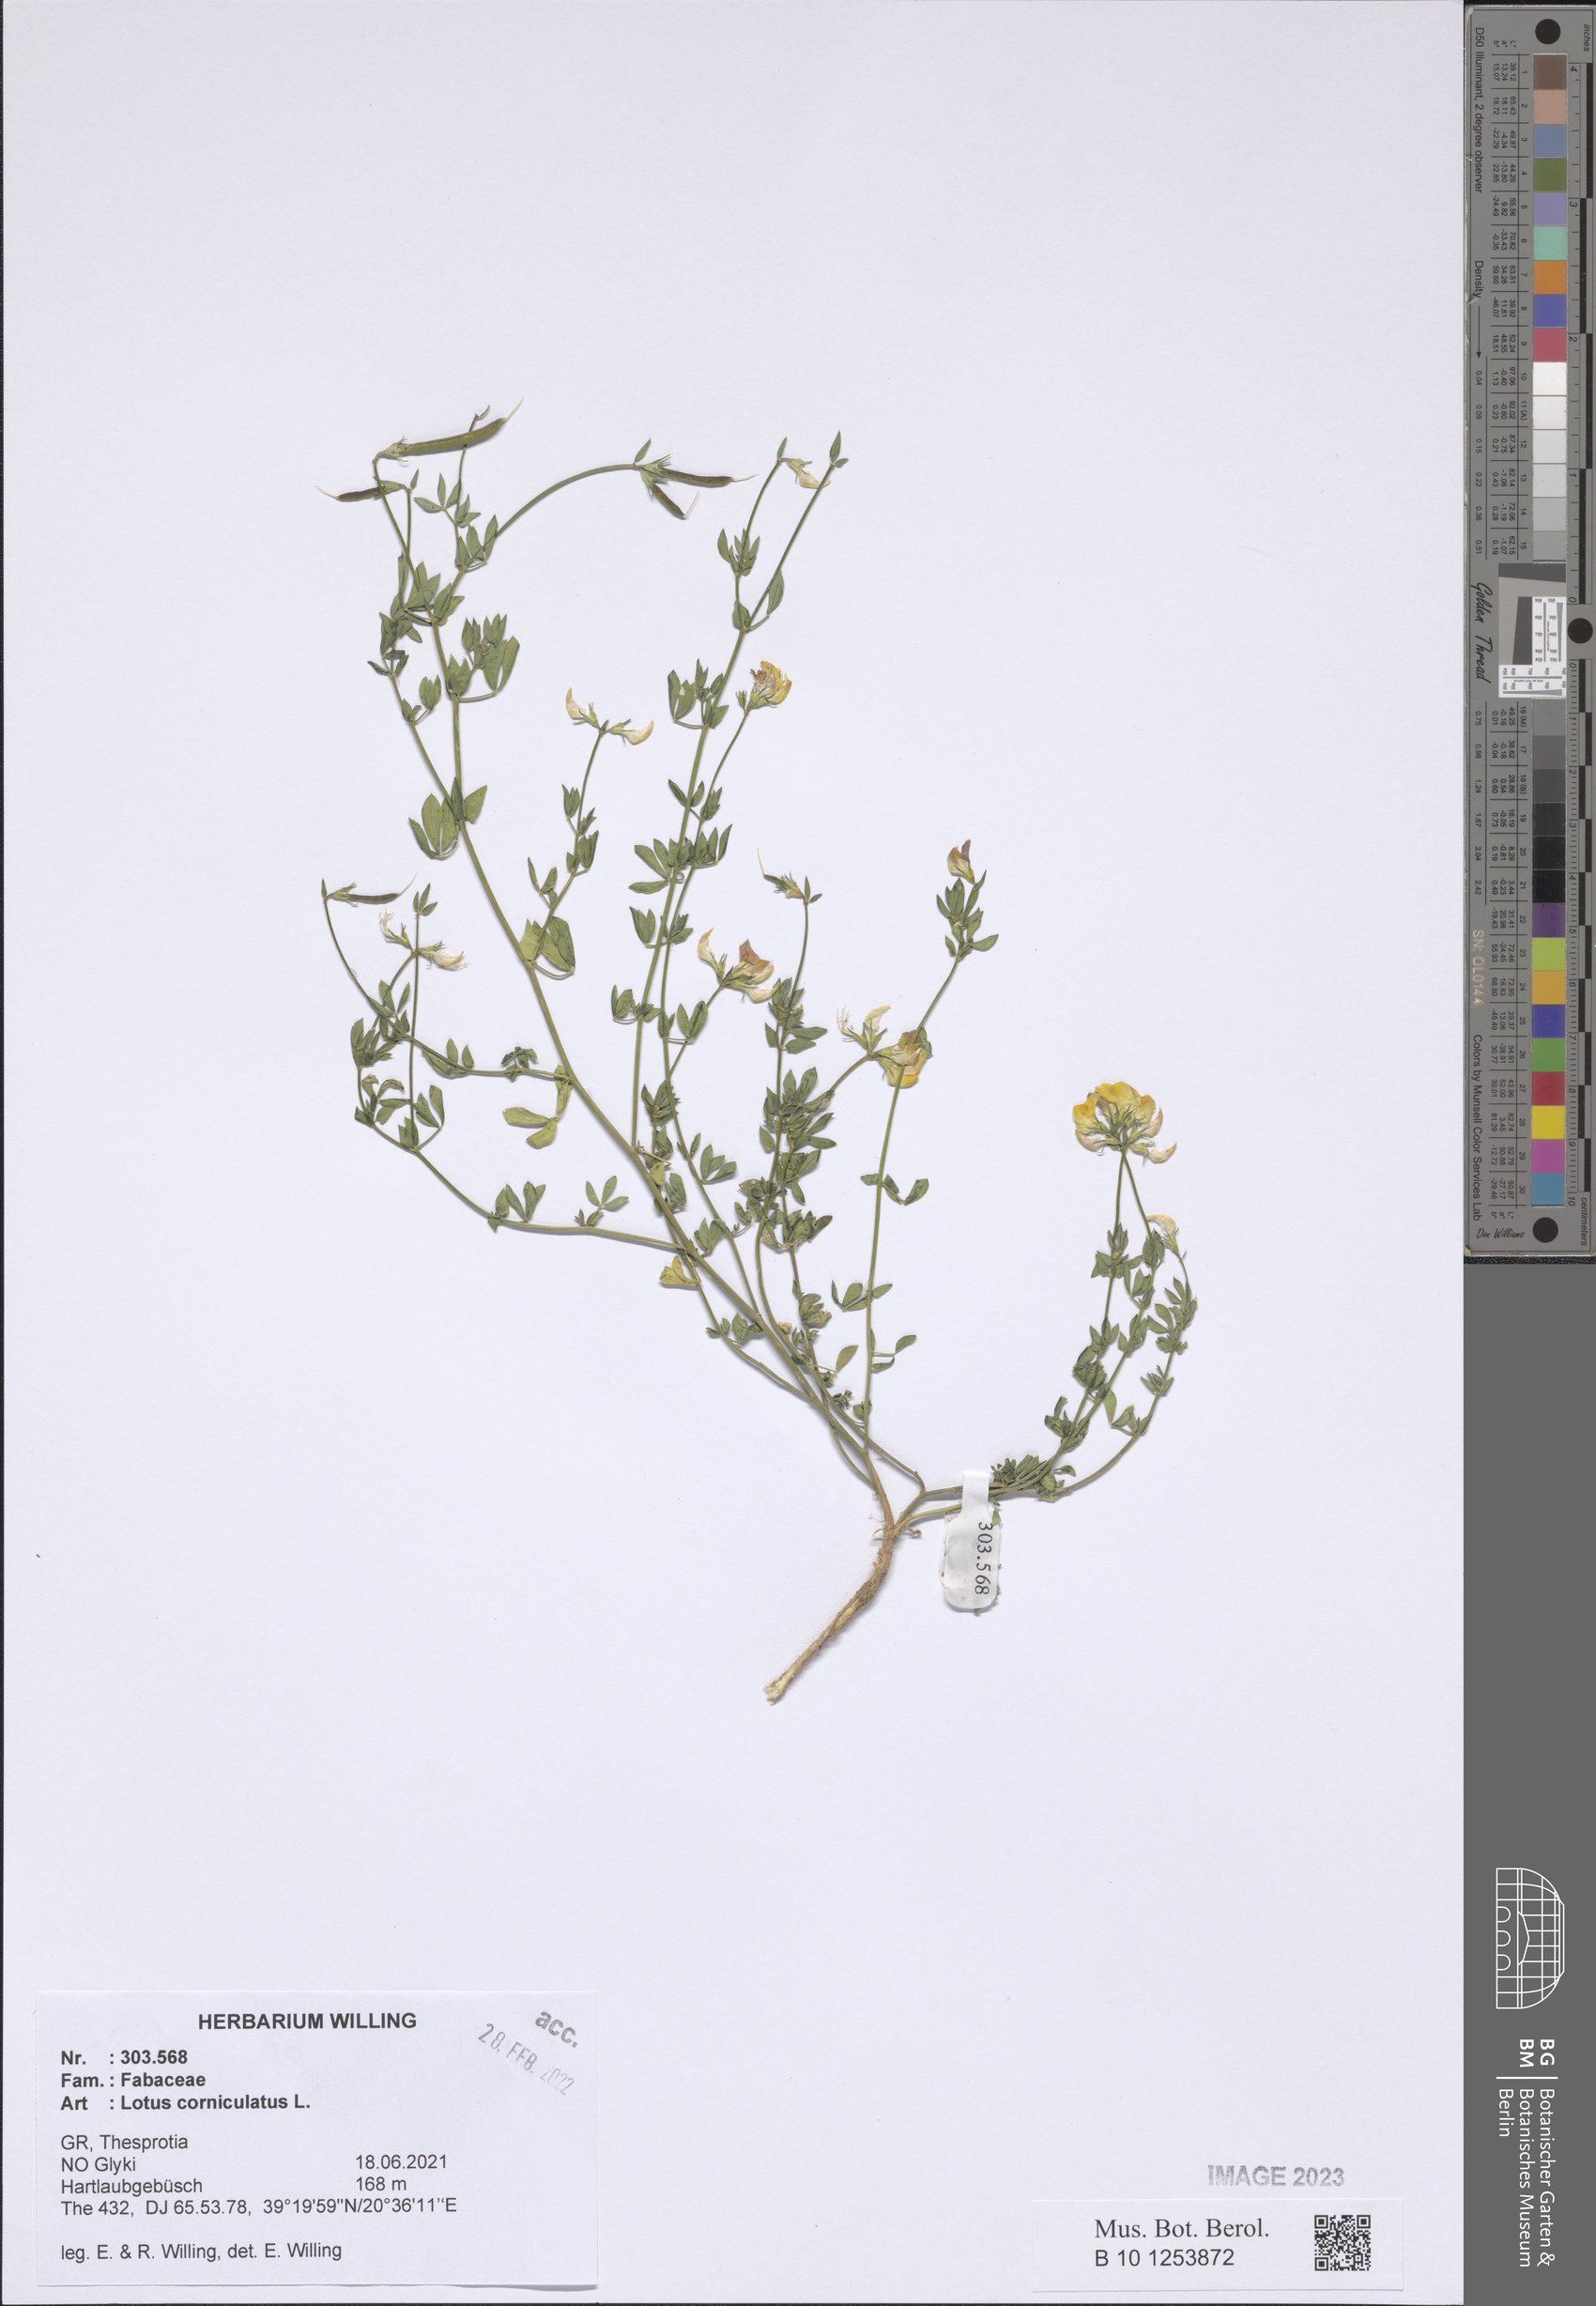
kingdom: Plantae
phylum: Tracheophyta
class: Magnoliopsida
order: Fabales
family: Fabaceae
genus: Lotus
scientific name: Lotus corniculatus
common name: Common bird's-foot-trefoil
